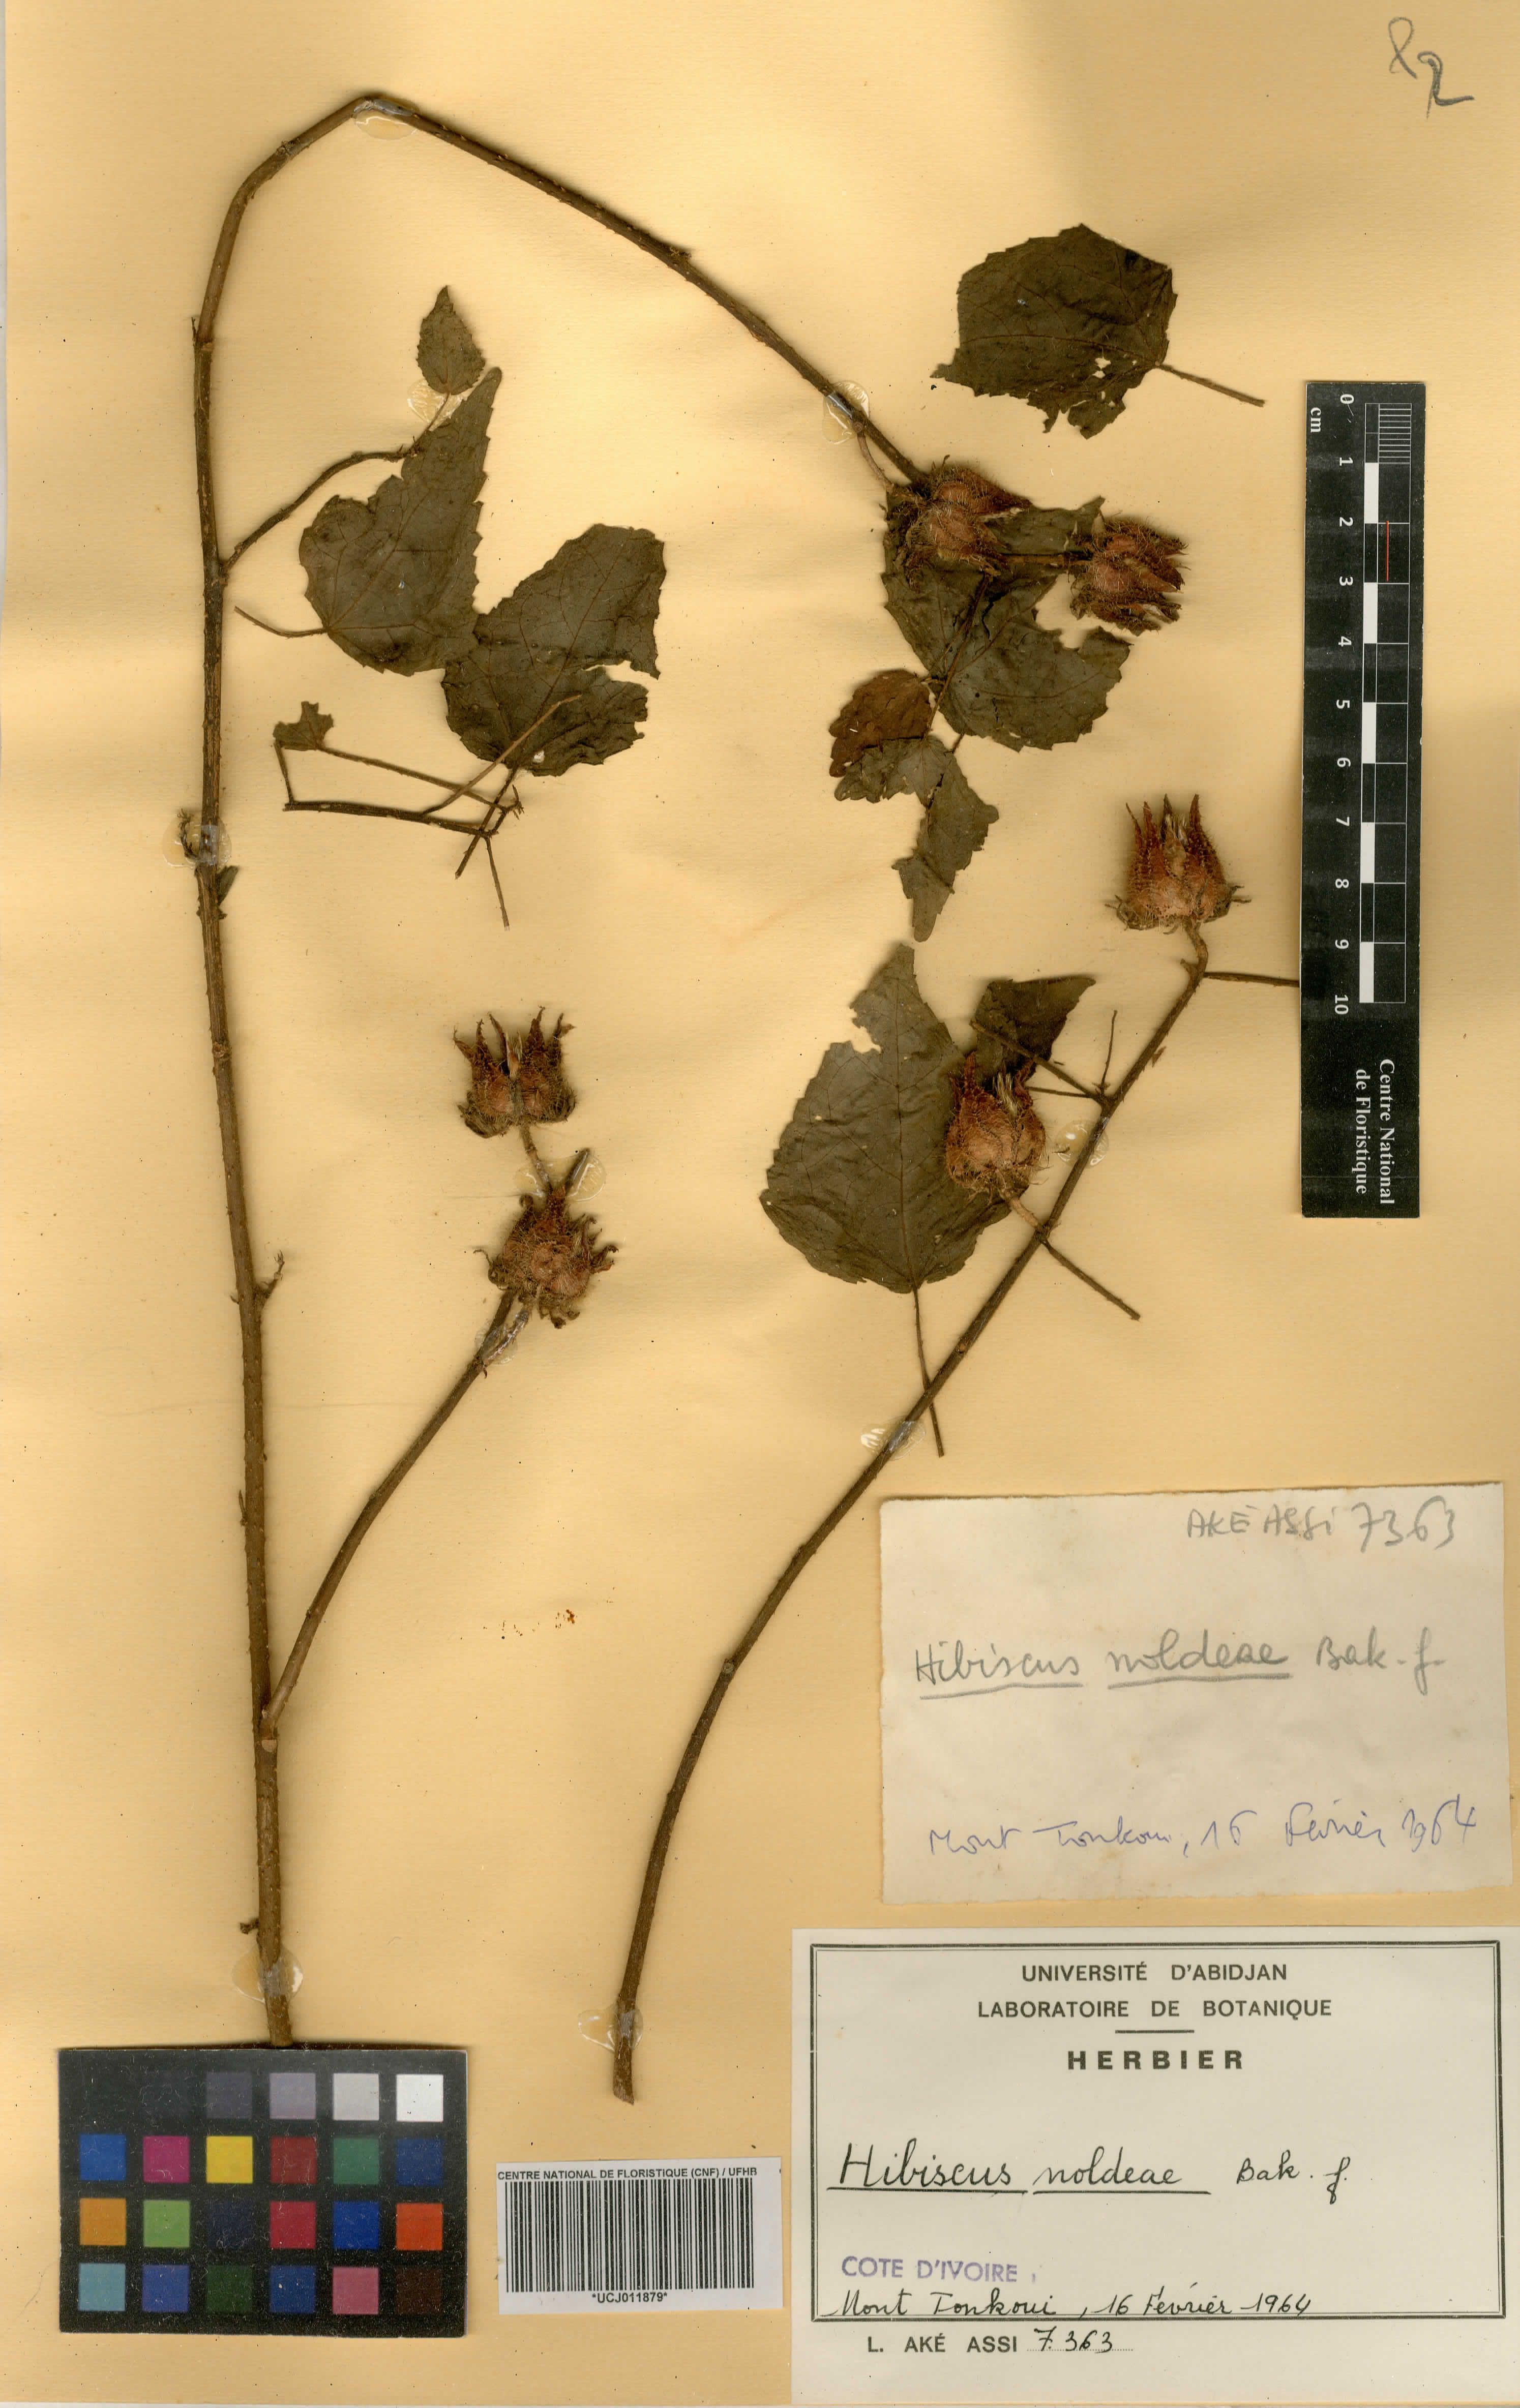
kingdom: Plantae
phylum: Tracheophyta
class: Magnoliopsida
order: Malvales
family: Malvaceae
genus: Hibiscus
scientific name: Hibiscus noldeae
